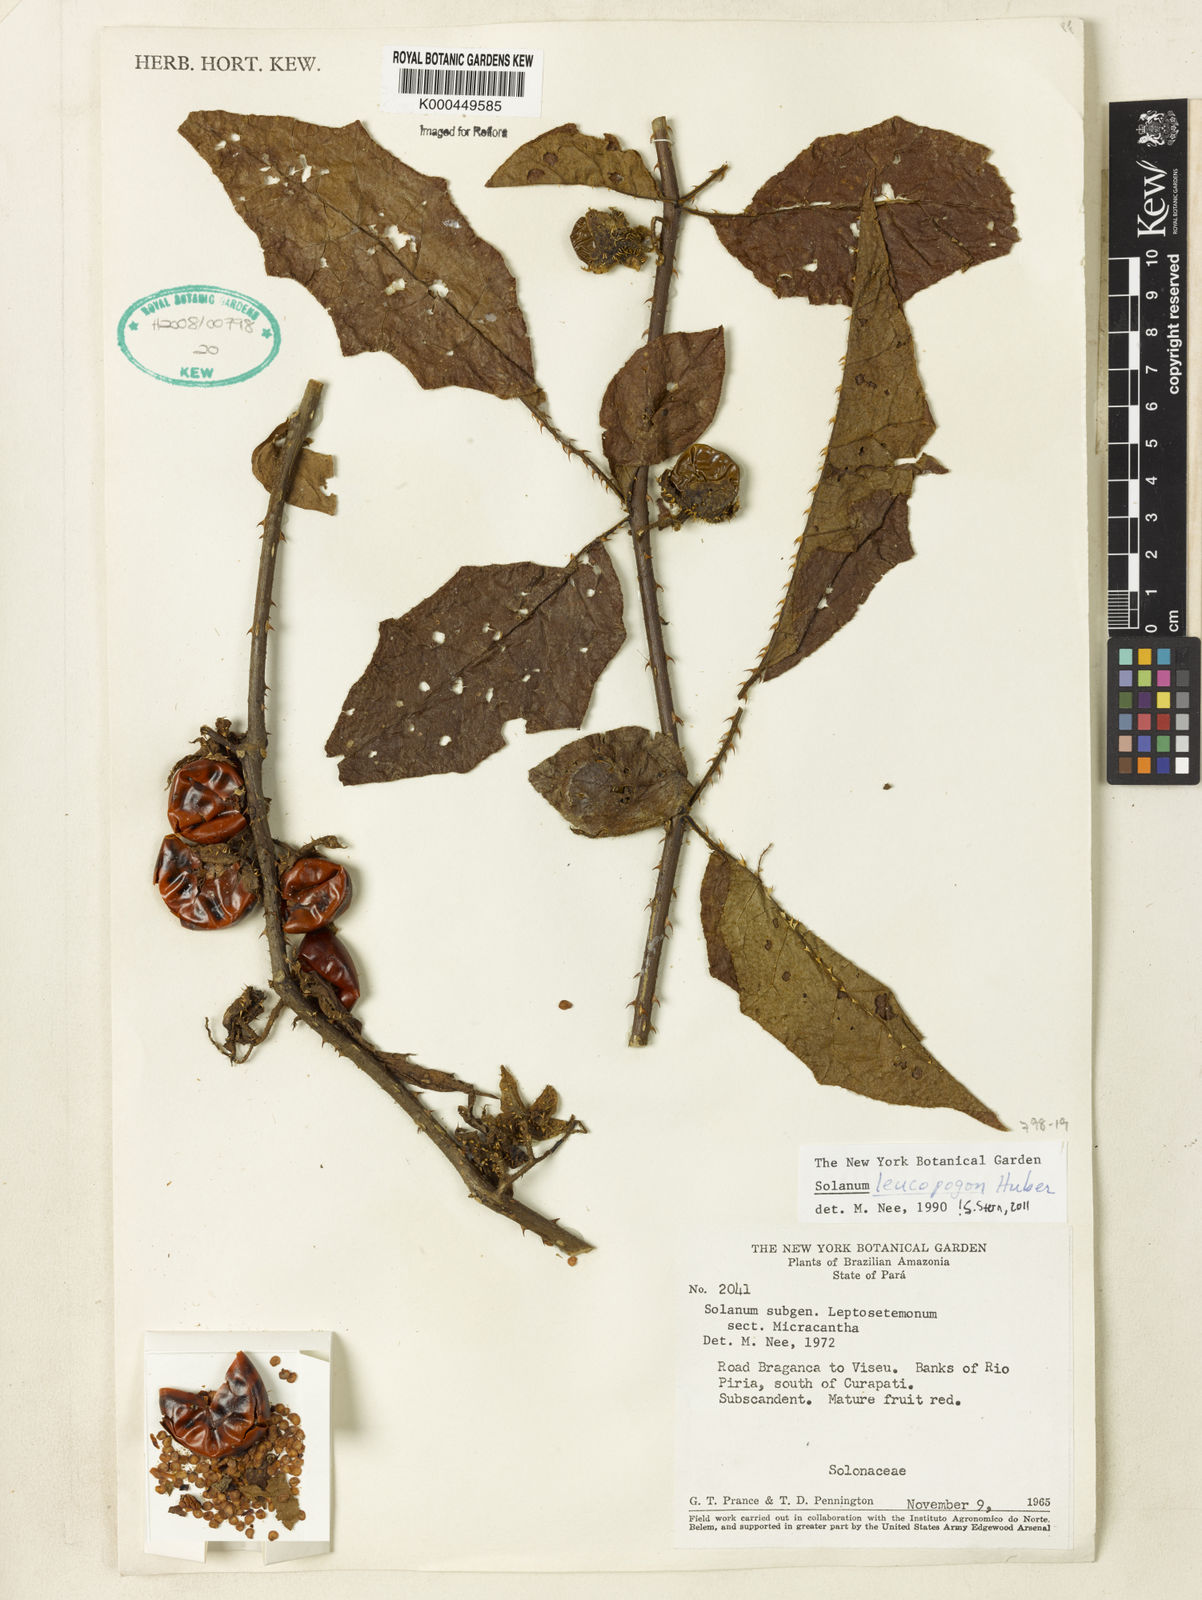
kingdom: Plantae
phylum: Tracheophyta
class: Magnoliopsida
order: Solanales
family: Solanaceae
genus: Solanum
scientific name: Solanum leucopogon
